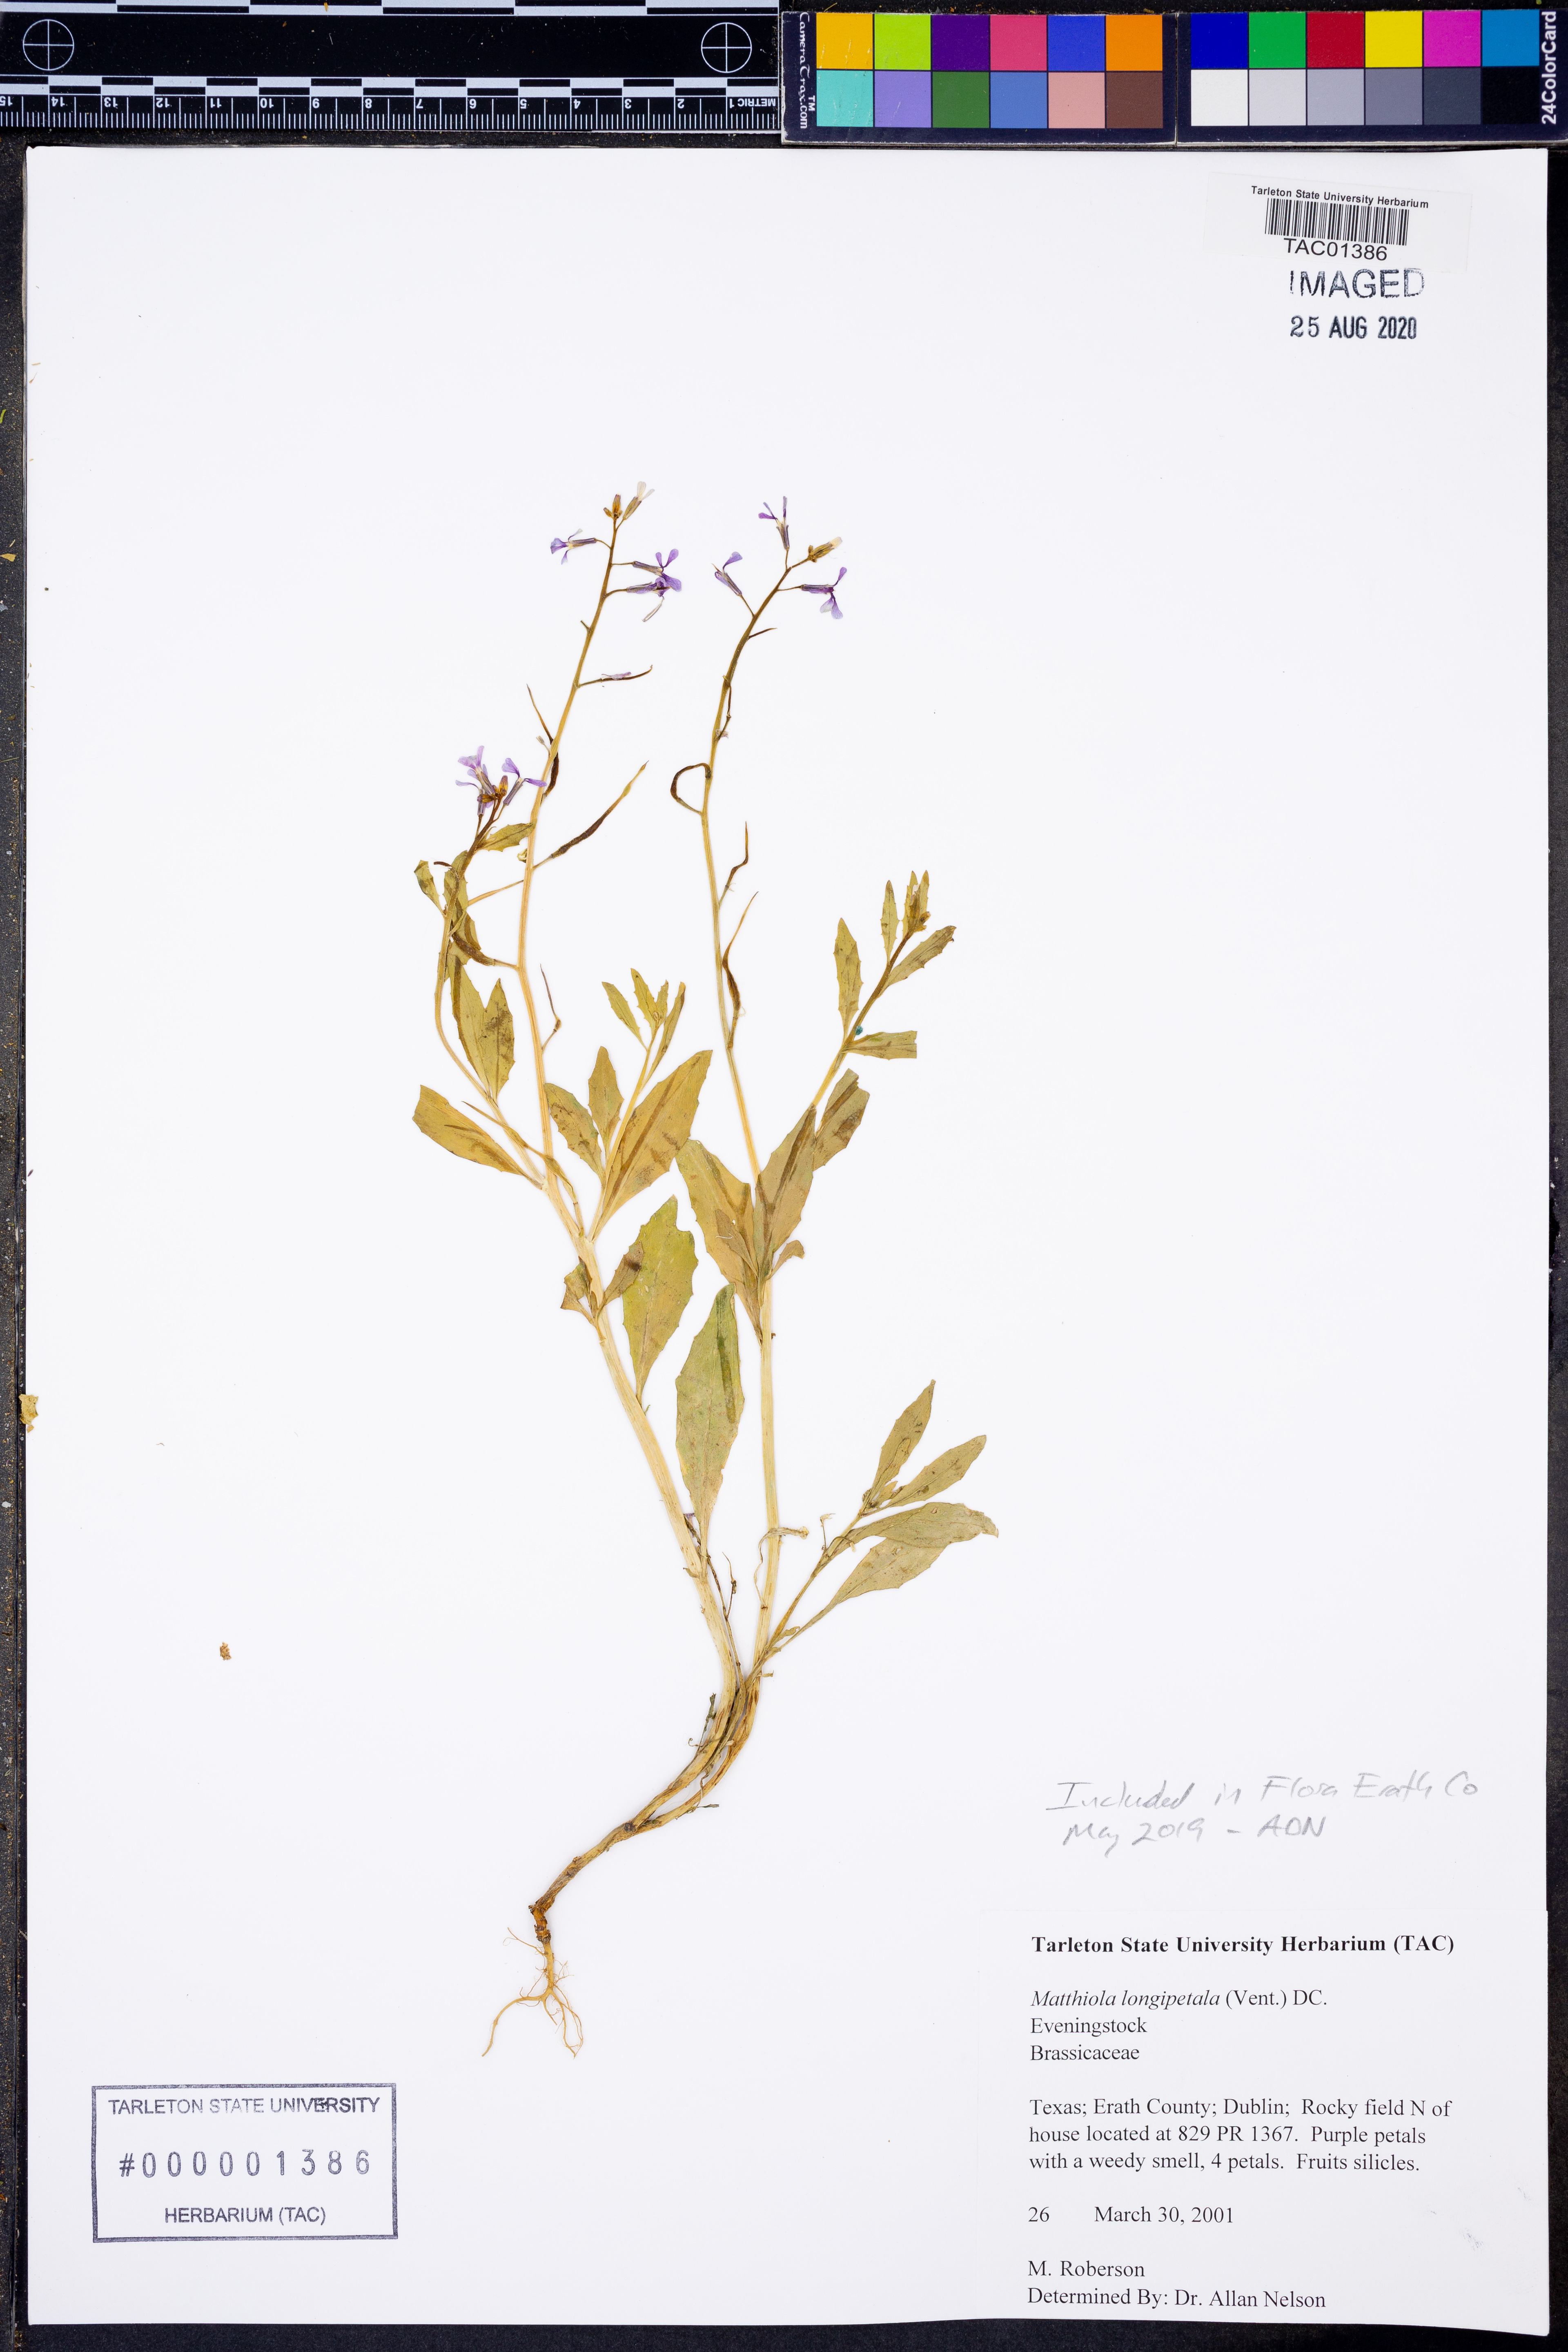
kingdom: Plantae
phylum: Tracheophyta
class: Magnoliopsida
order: Brassicales
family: Brassicaceae
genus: Matthiola
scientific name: Matthiola longipetala
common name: Night-scented stock
